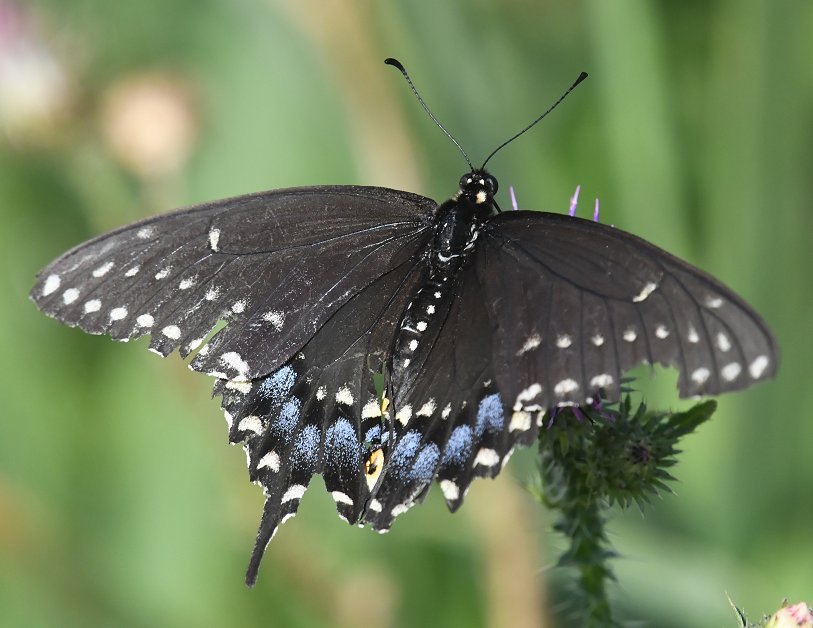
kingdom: Animalia
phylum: Arthropoda
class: Insecta
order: Lepidoptera
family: Papilionidae
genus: Papilio
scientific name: Papilio polyxenes
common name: Black Swallowtail
